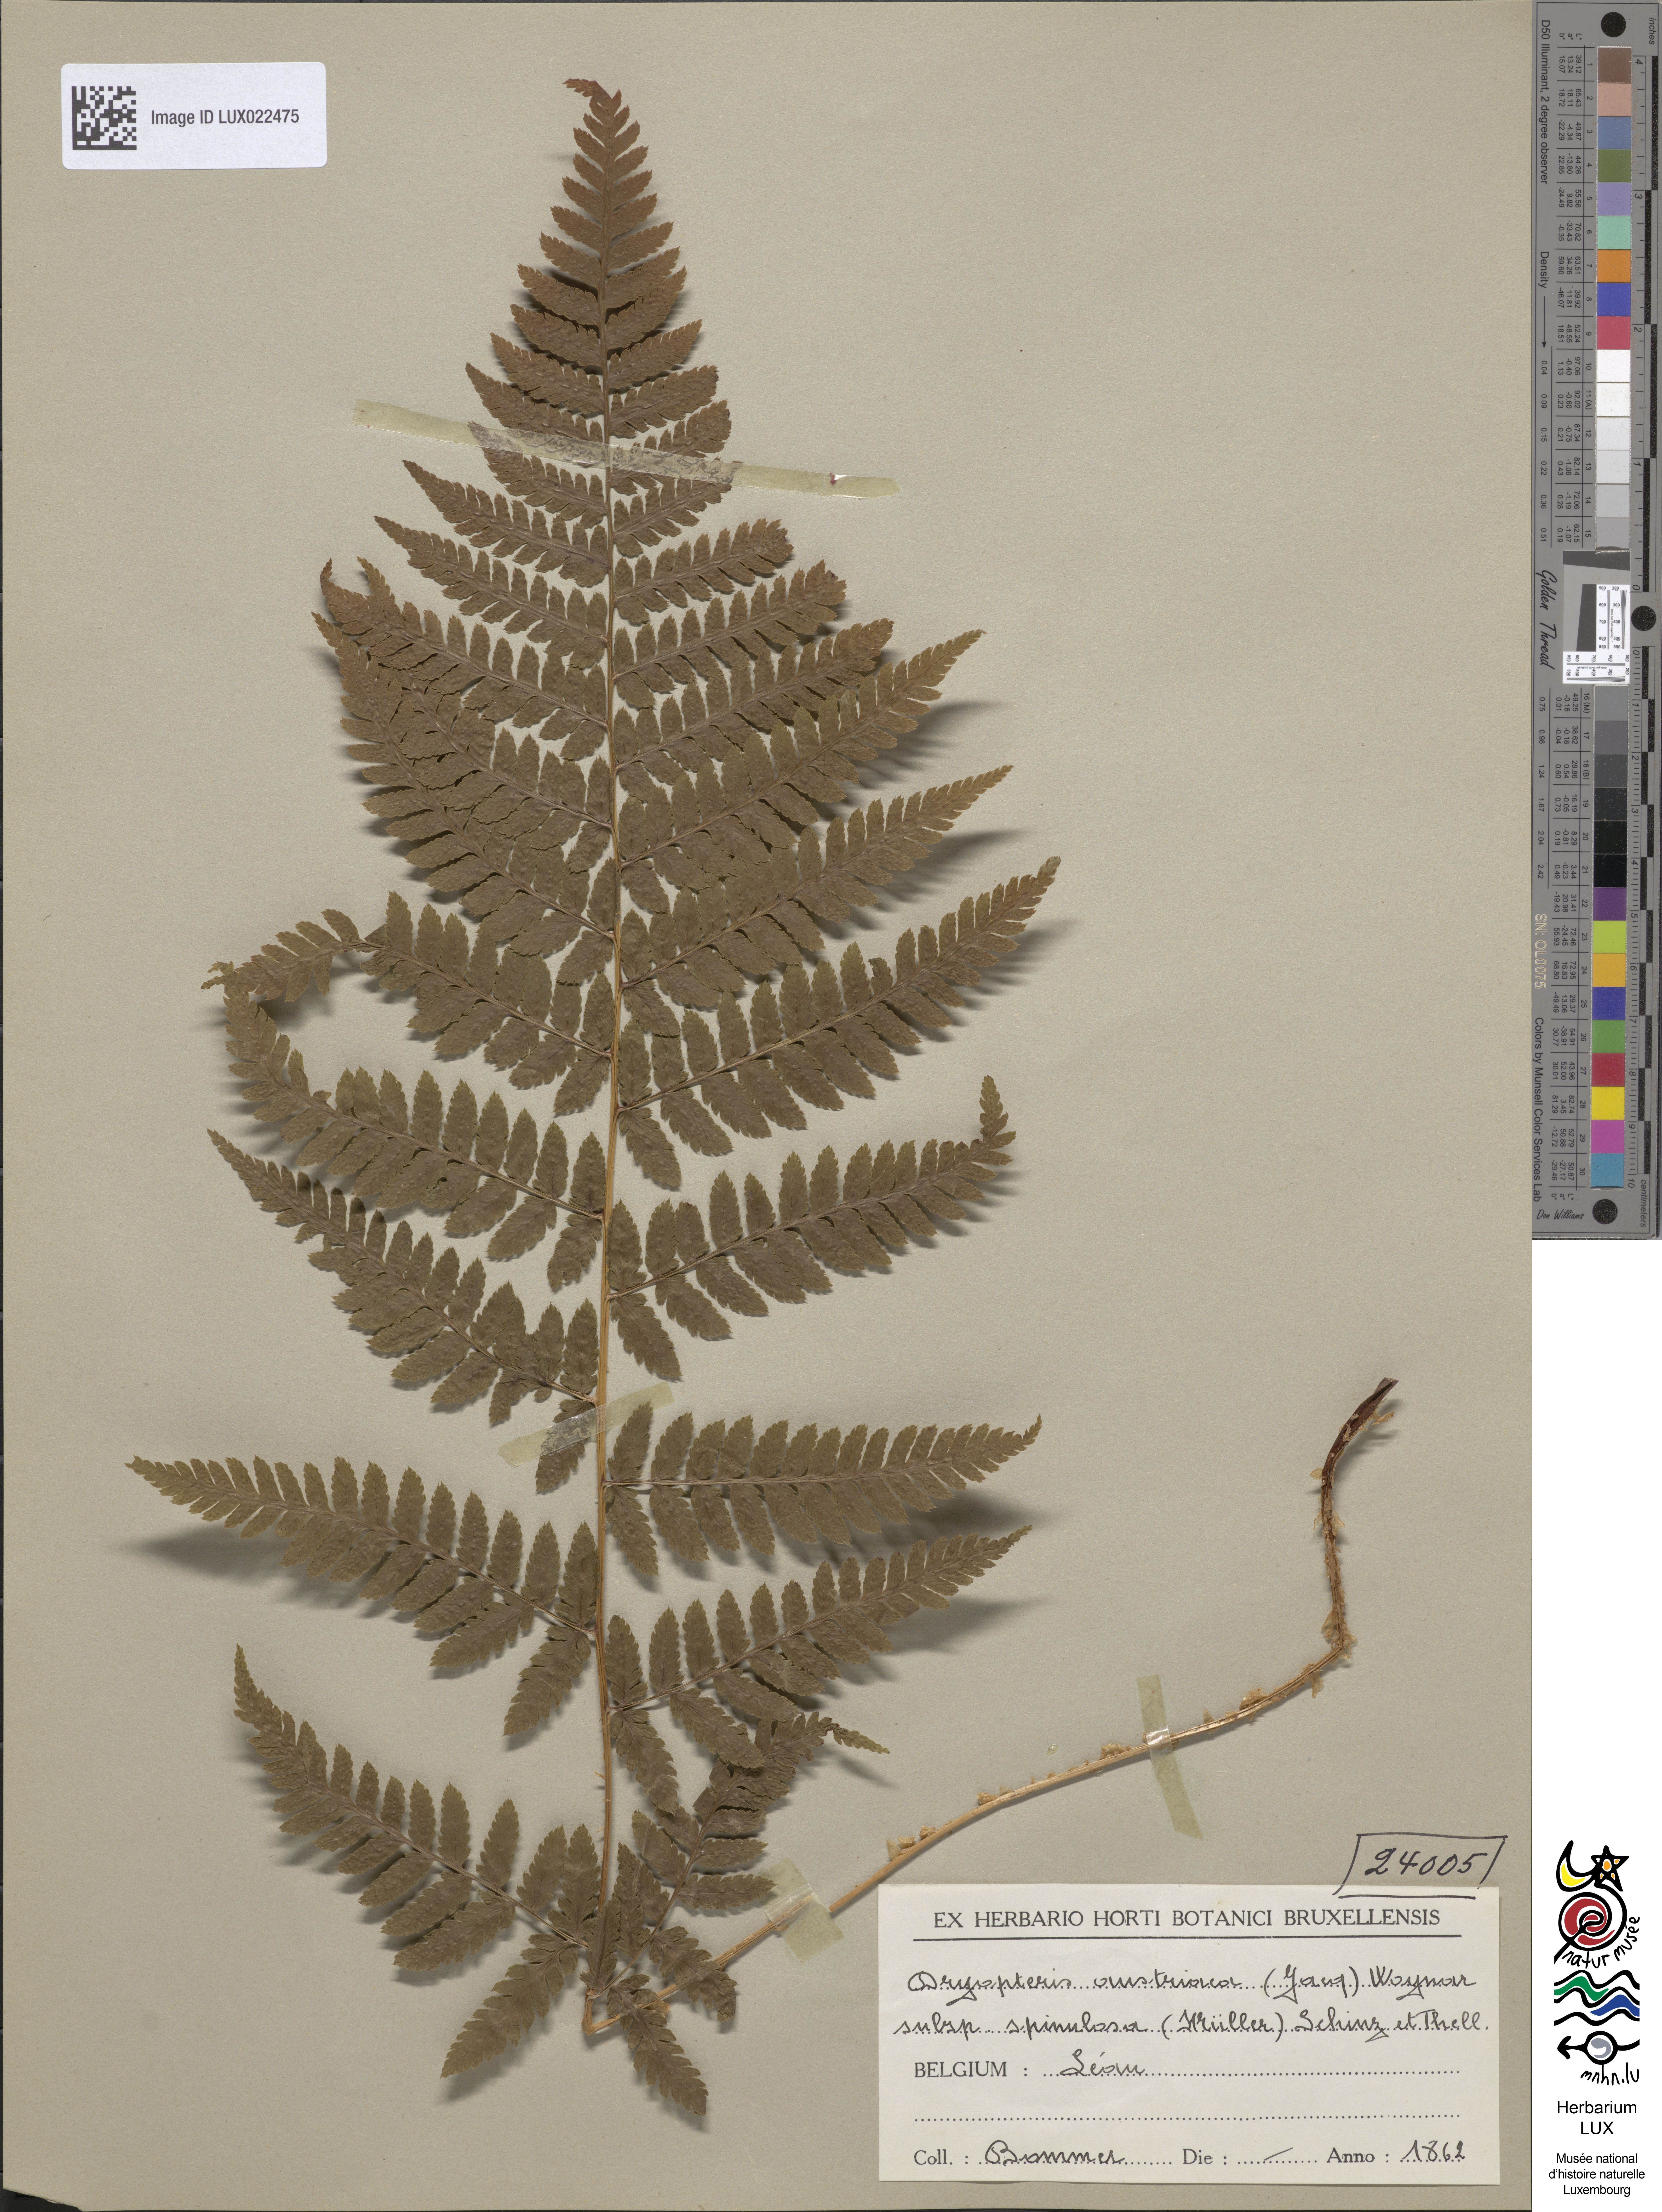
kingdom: Plantae
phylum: Tracheophyta
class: Polypodiopsida
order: Polypodiales
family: Dryopteridaceae
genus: Dryopteris
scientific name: Dryopteris carthusiana
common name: Narrow buckler-fern
